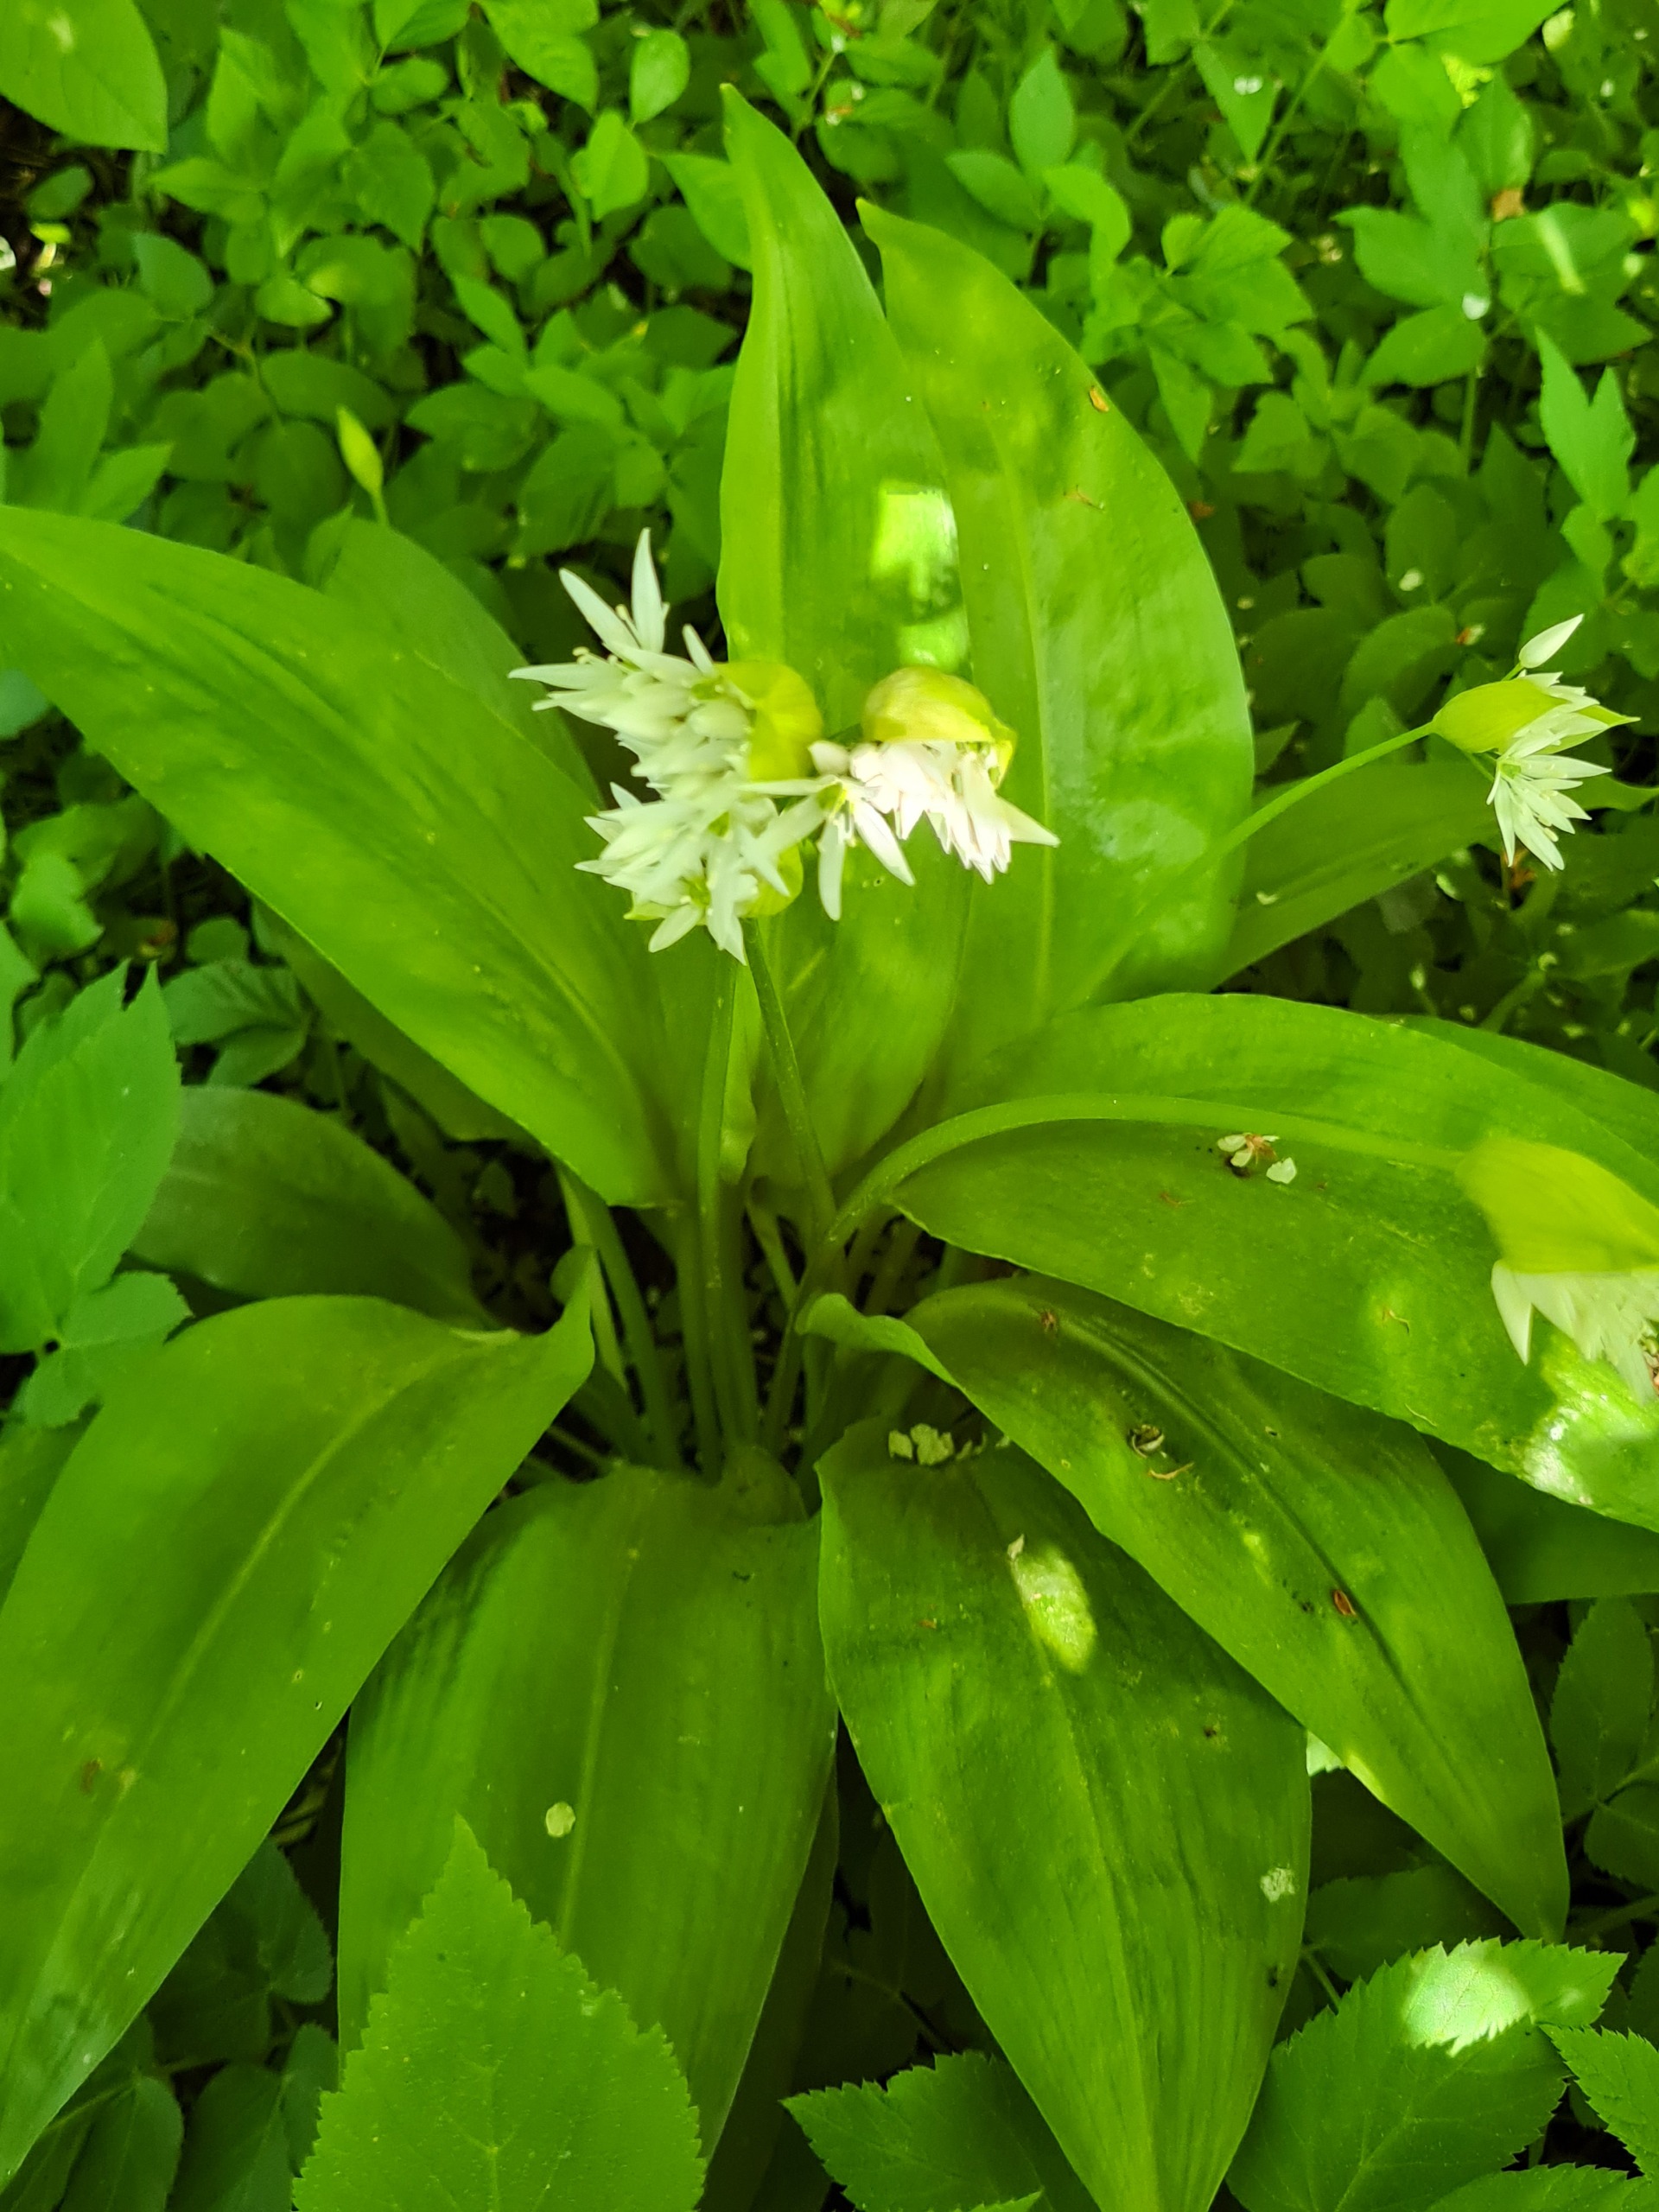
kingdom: Plantae
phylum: Tracheophyta
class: Liliopsida
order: Asparagales
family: Amaryllidaceae
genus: Allium
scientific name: Allium ursinum
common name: Rams-løg
